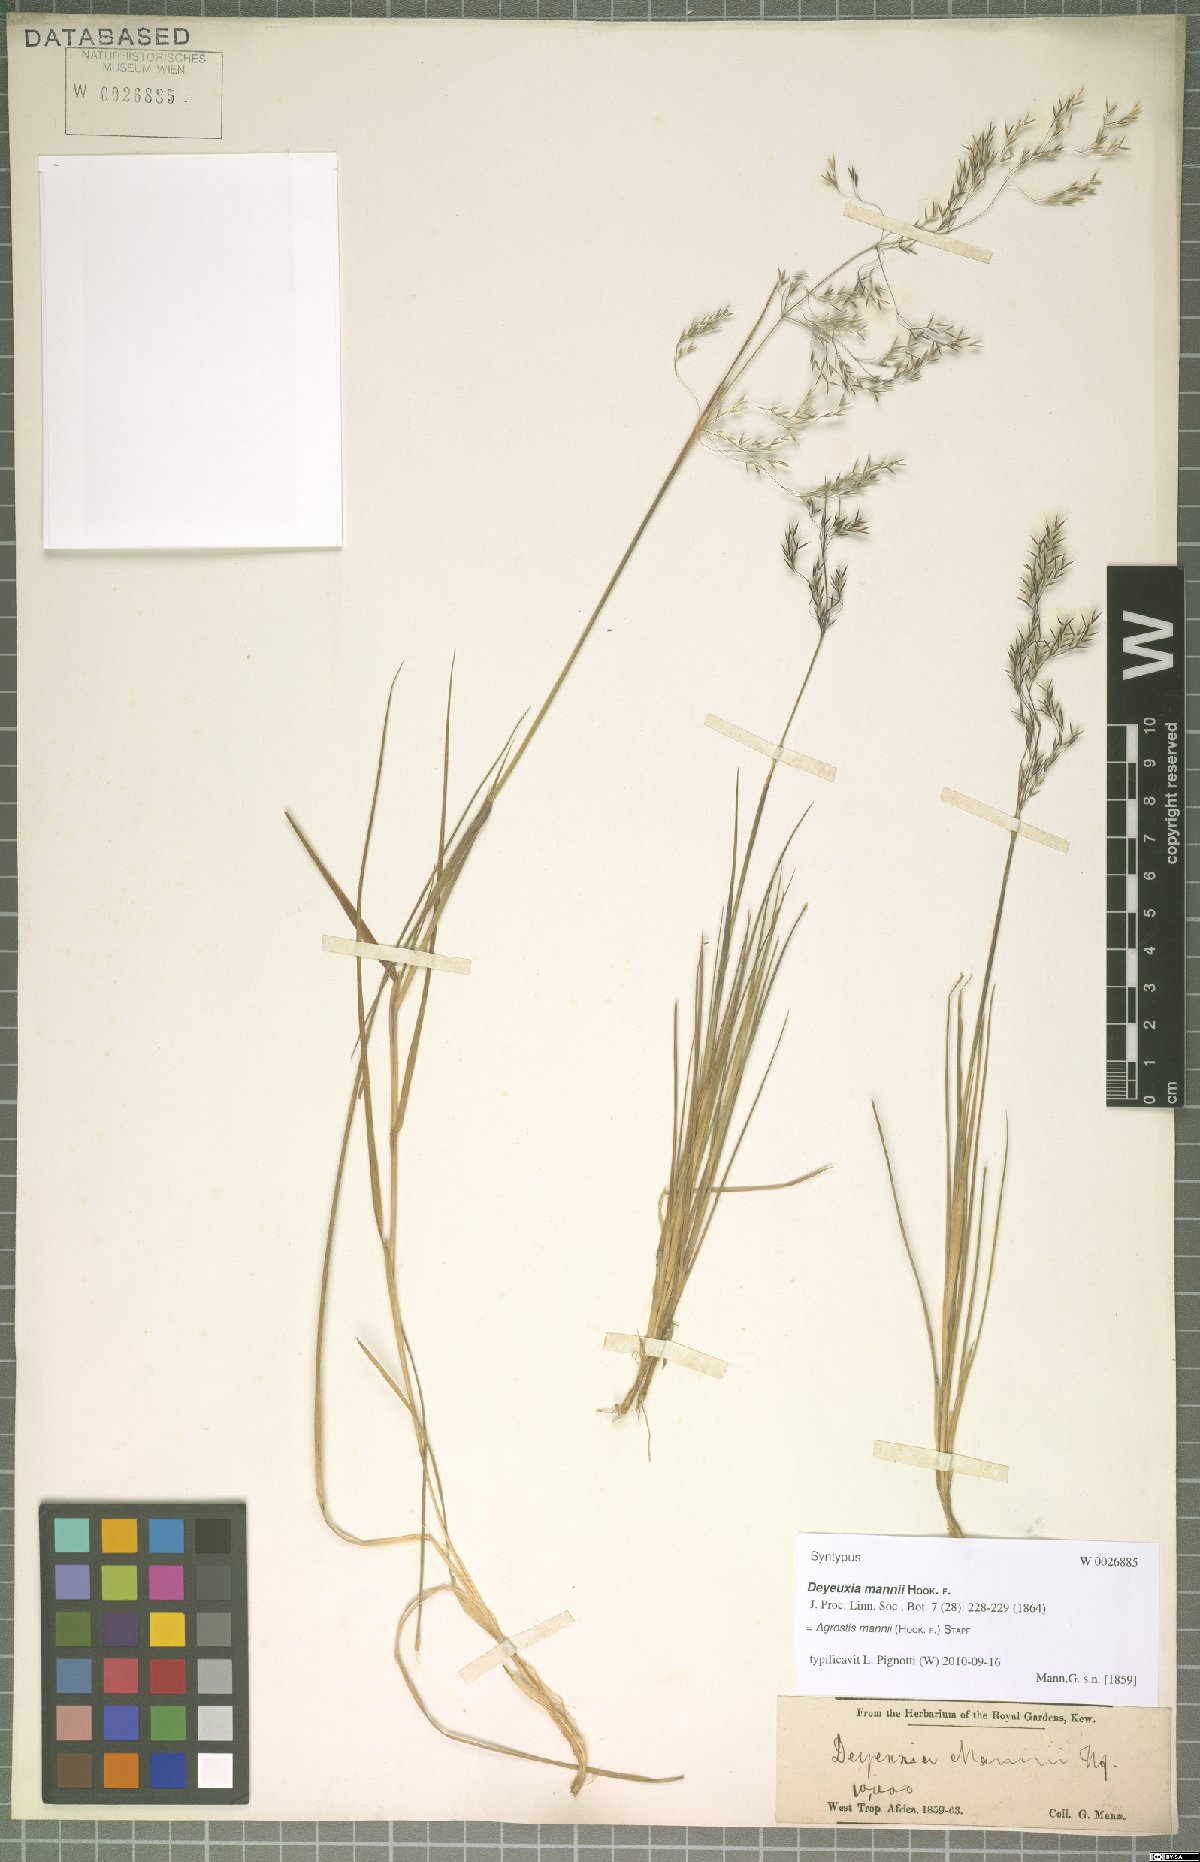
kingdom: Plantae
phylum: Tracheophyta
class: Liliopsida
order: Poales
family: Poaceae
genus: Agrostis
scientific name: Agrostis mannii
